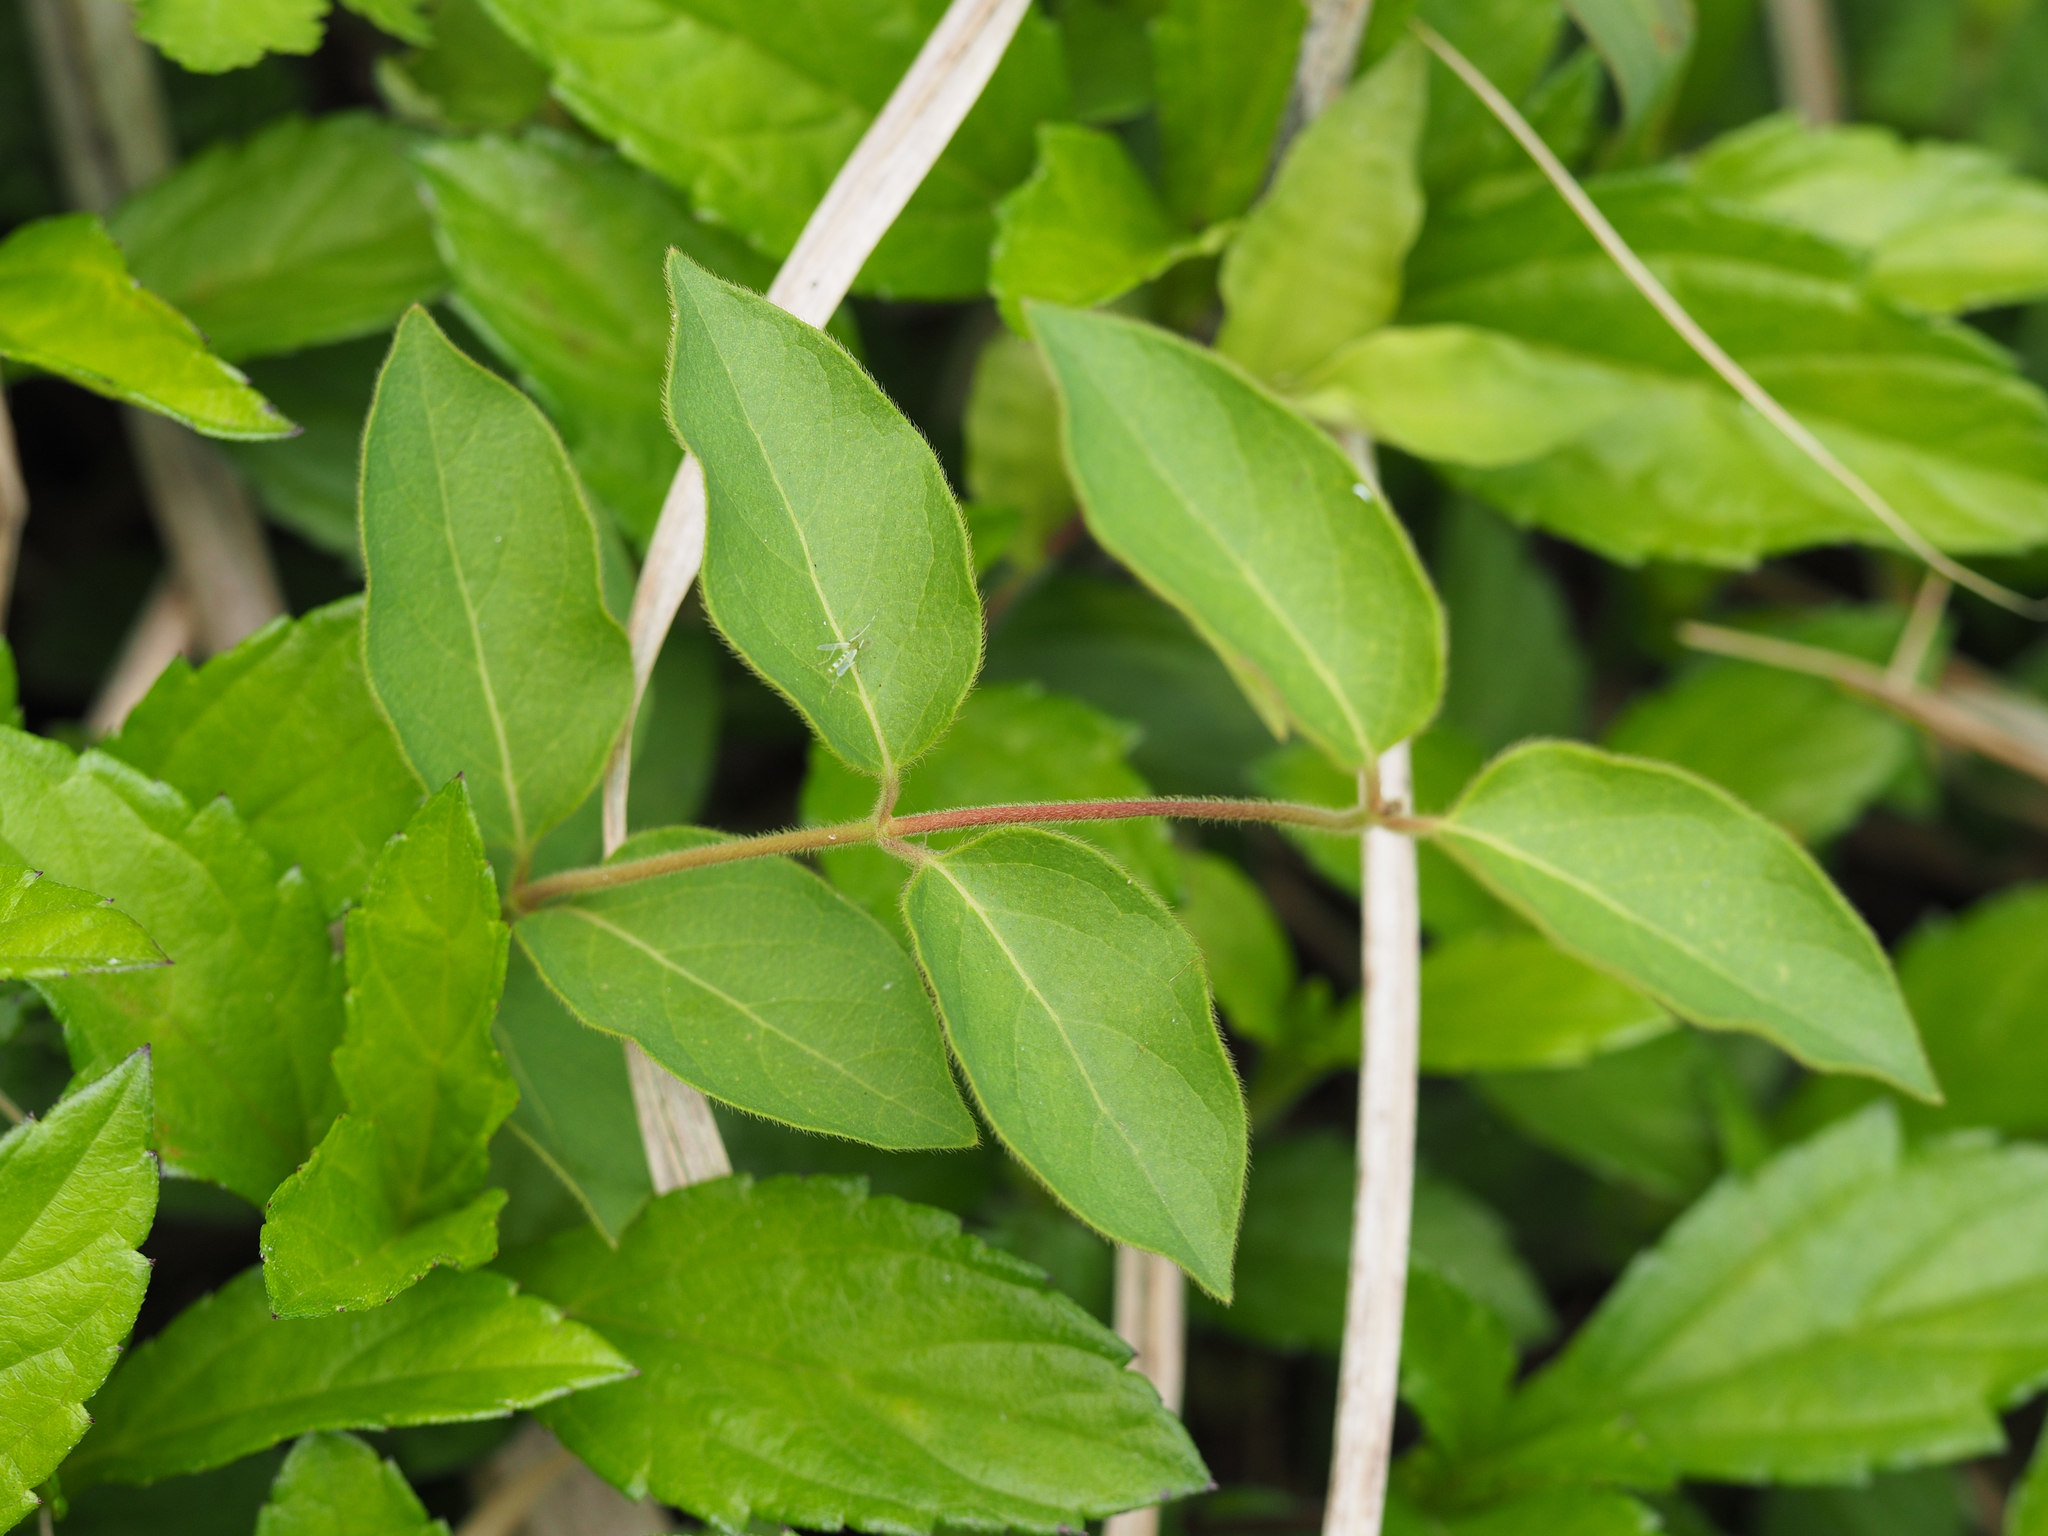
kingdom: Plantae
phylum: Tracheophyta
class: Magnoliopsida
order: Dipsacales
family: Caprifoliaceae
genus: Lonicera
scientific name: Lonicera japonica
